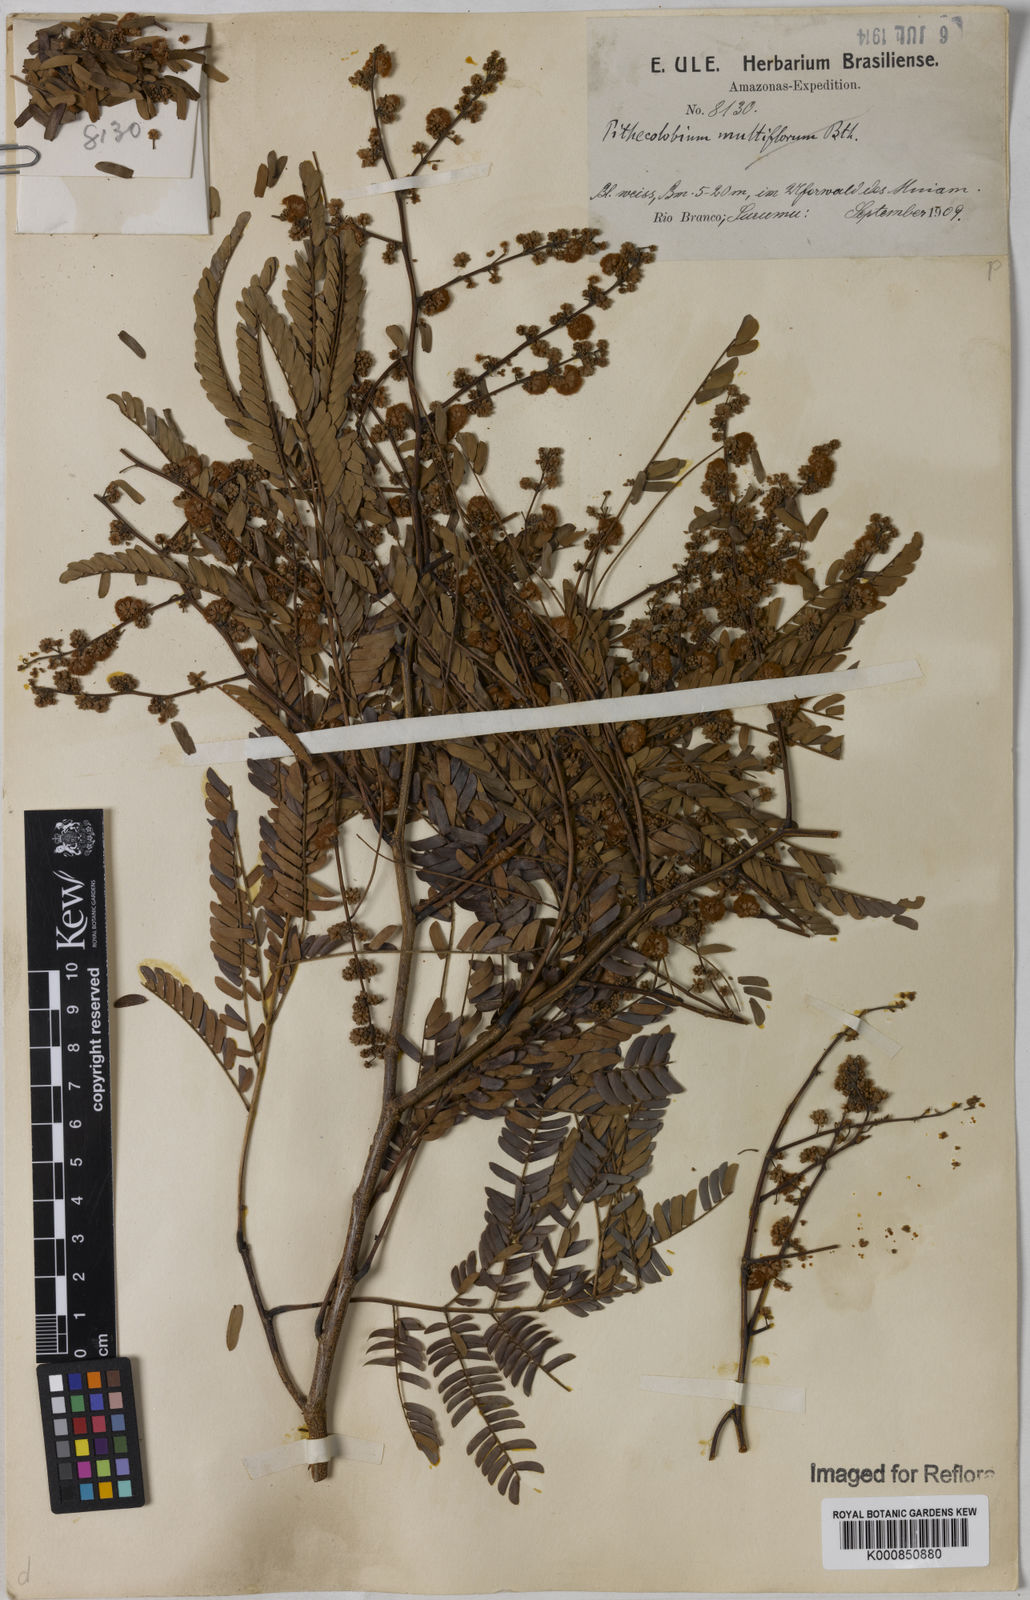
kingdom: Plantae
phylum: Tracheophyta
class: Magnoliopsida
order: Fabales
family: Fabaceae
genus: Senegalia
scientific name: Senegalia polyphylla
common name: White-tamarind
